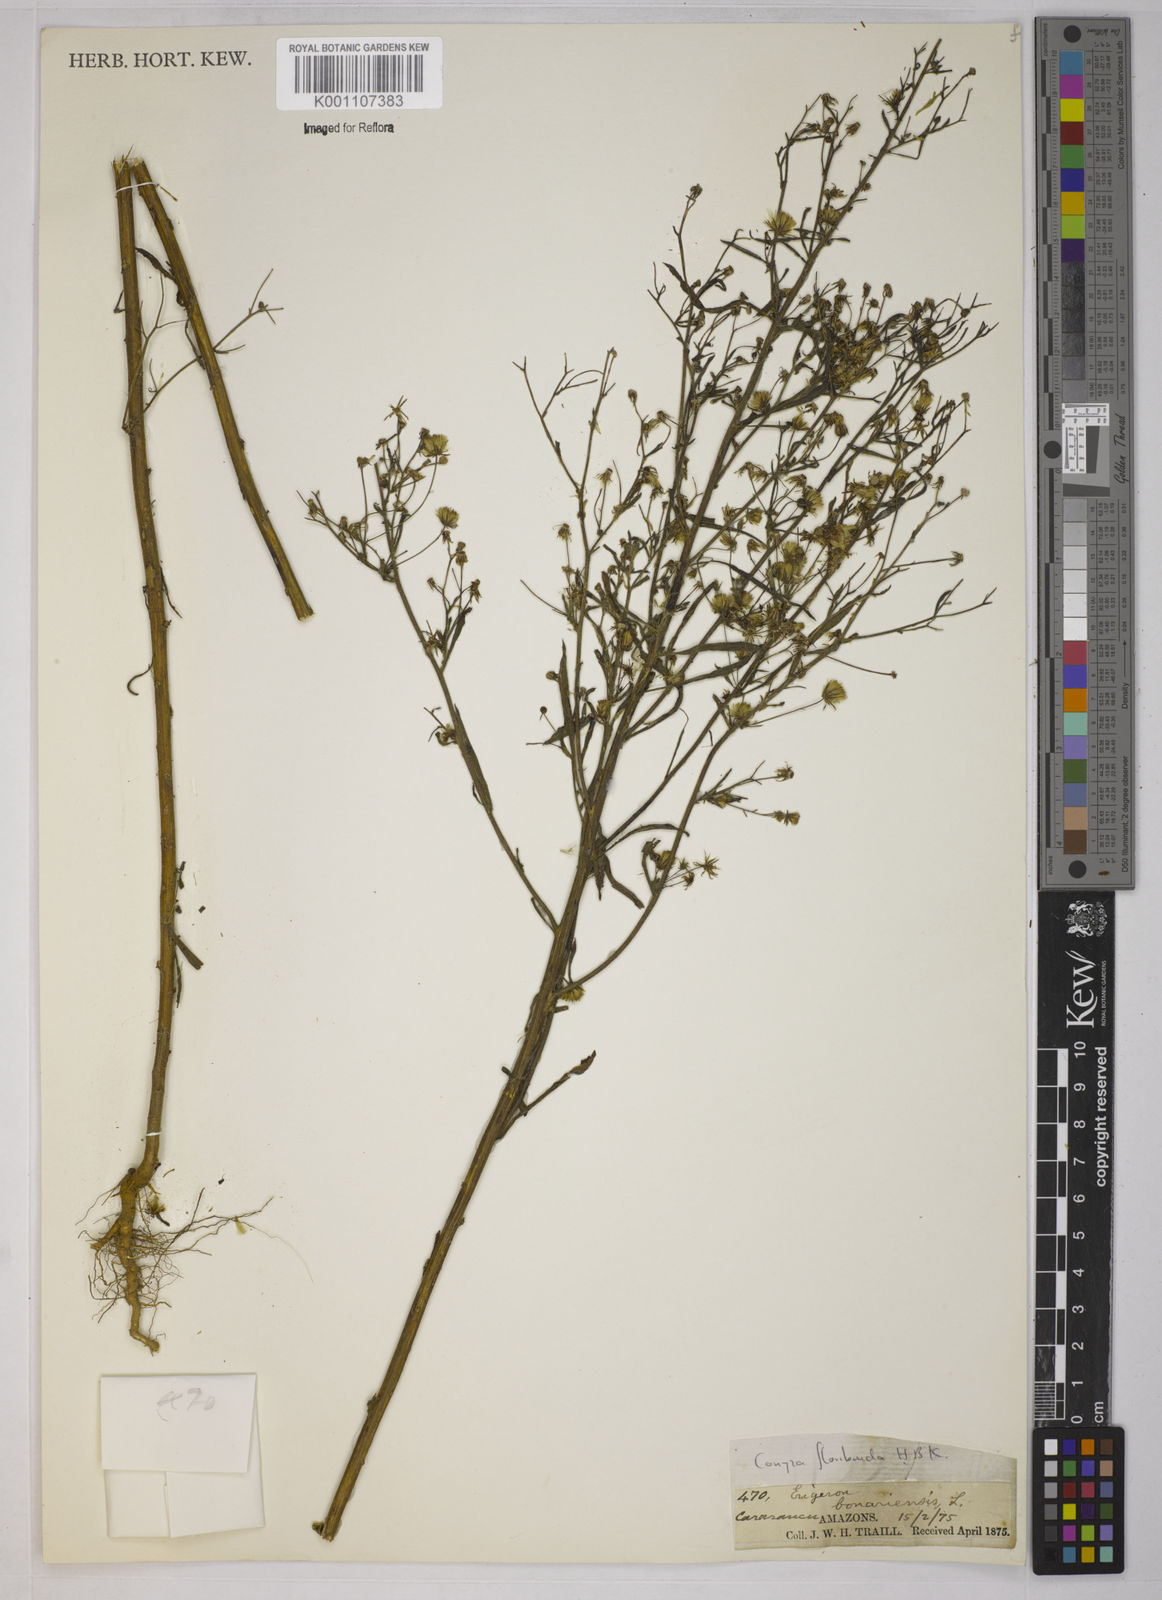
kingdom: Plantae
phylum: Tracheophyta
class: Magnoliopsida
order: Asterales
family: Asteraceae
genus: Erigeron
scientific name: Erigeron sumatrensis
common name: Daisy
